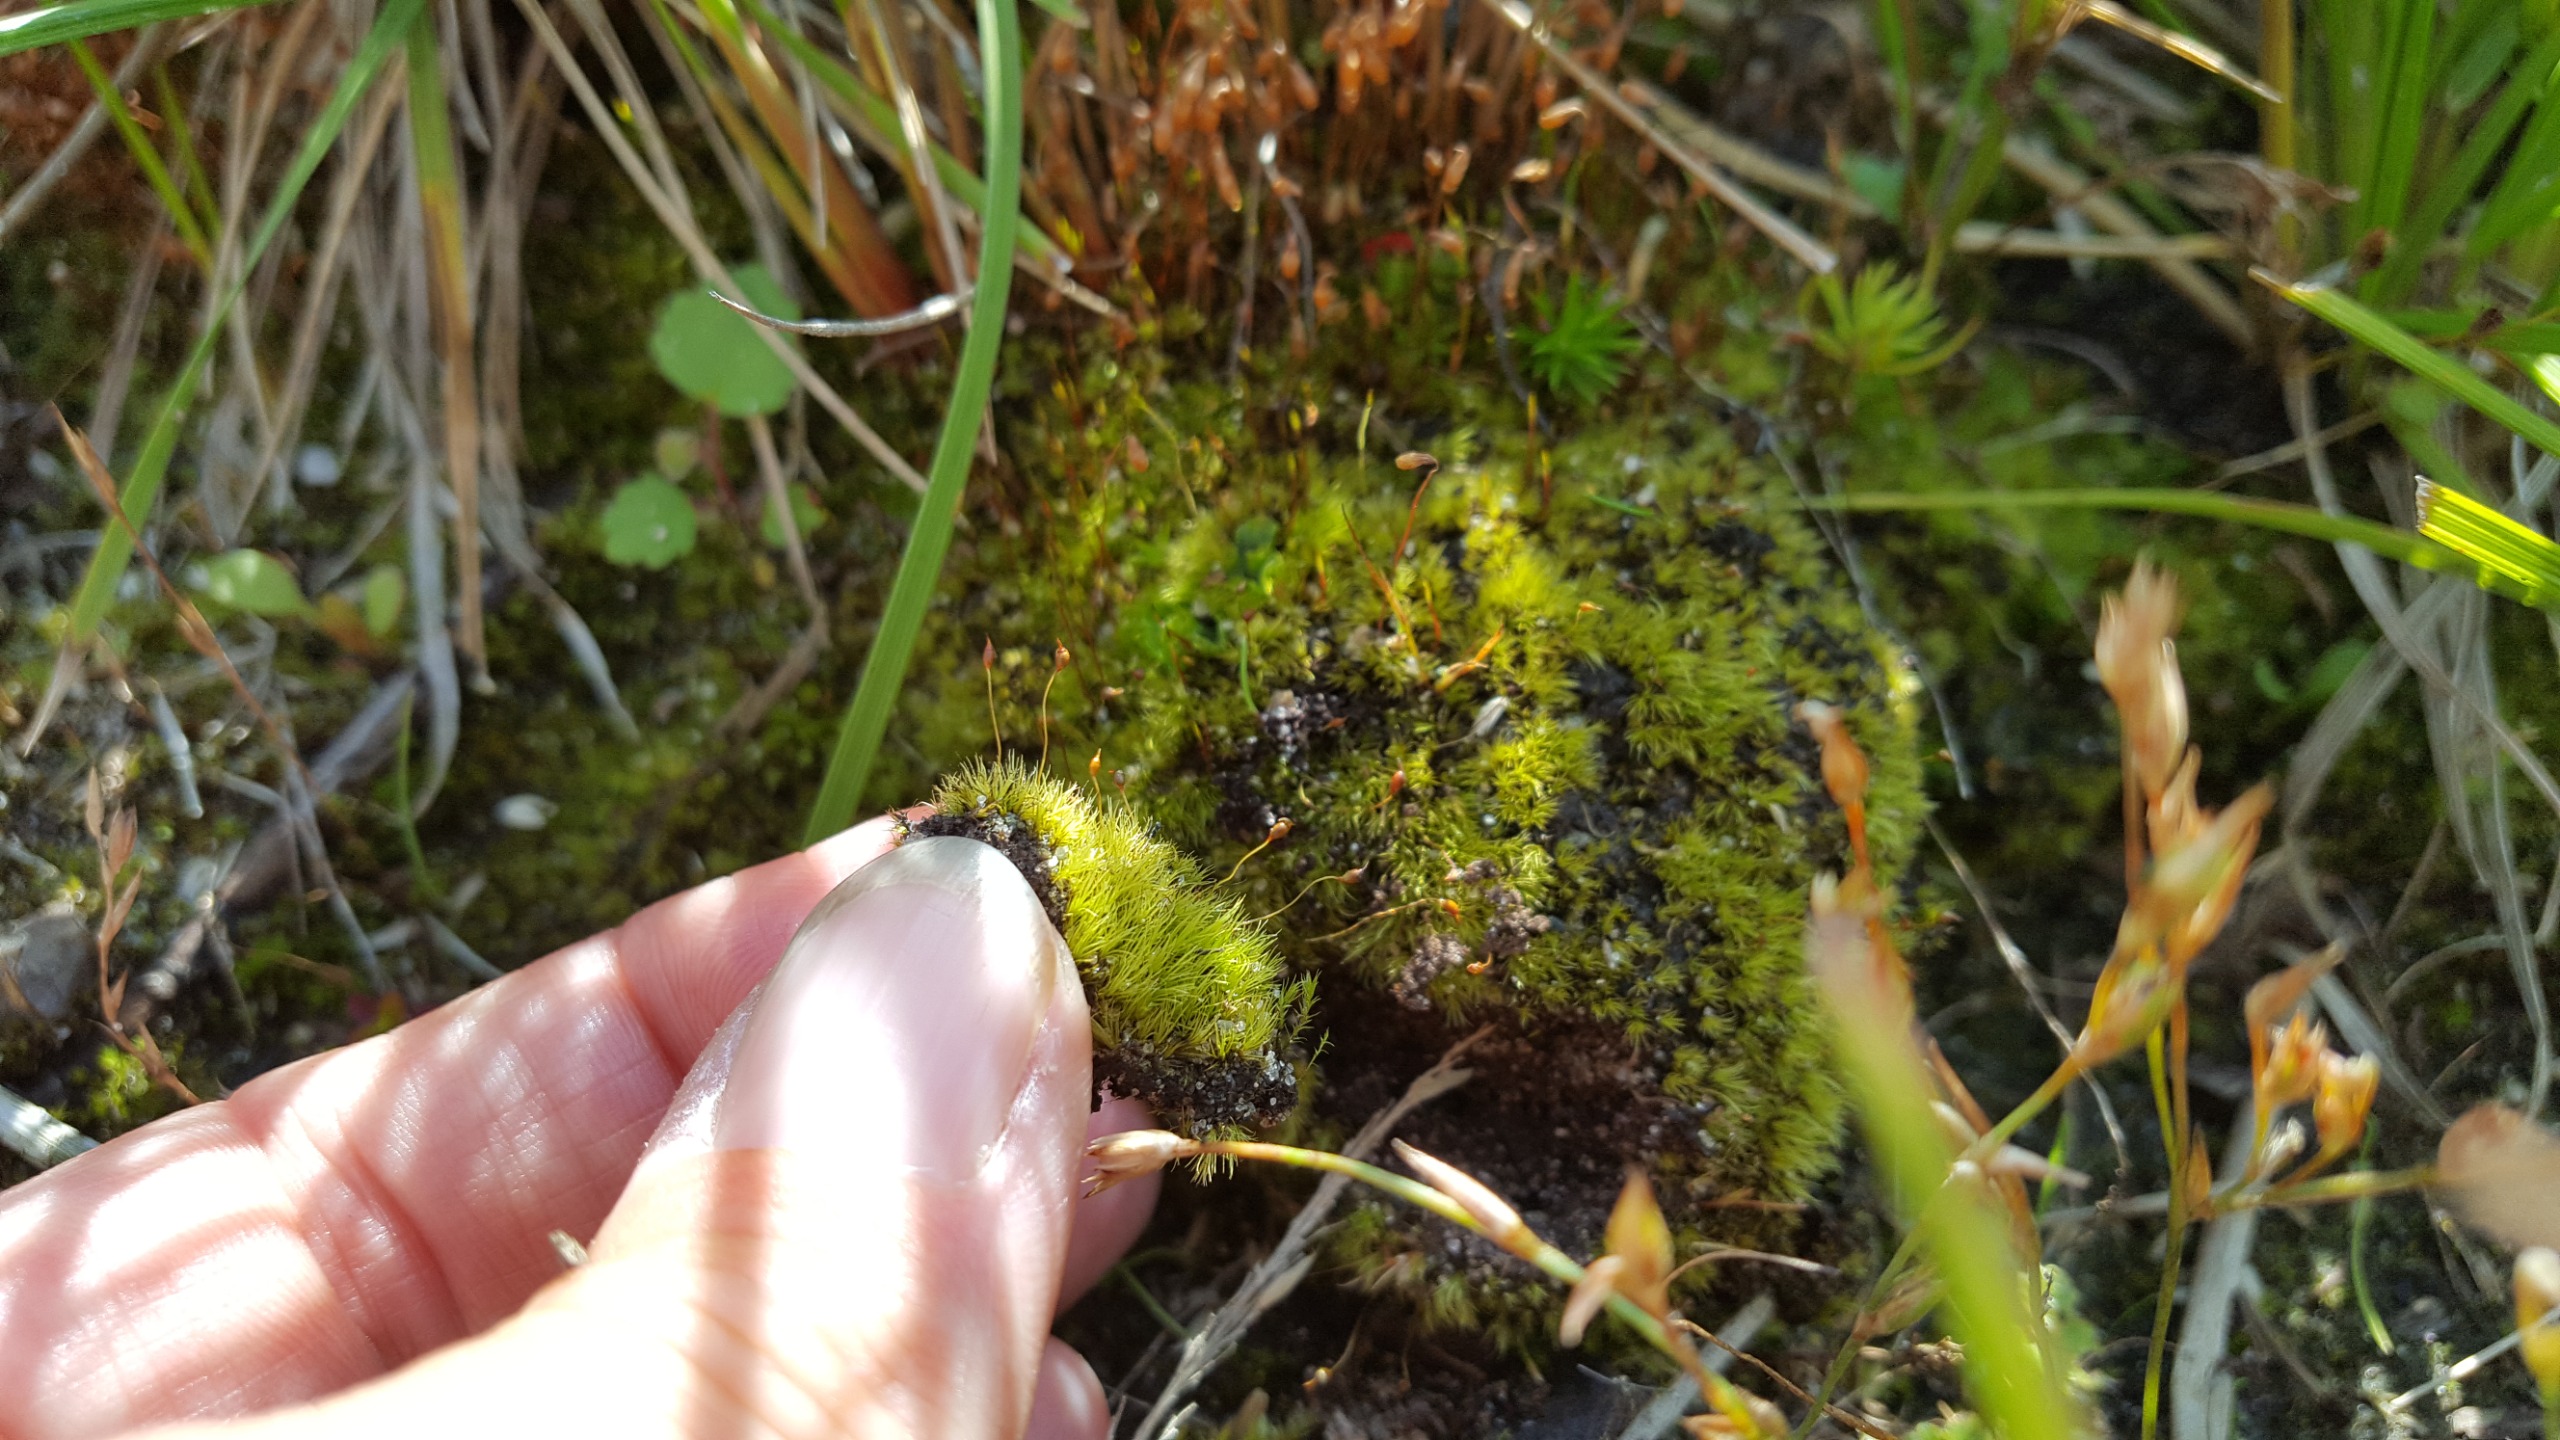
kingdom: Plantae
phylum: Bryophyta
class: Bryopsida
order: Dicranales
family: Dicranellaceae
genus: Dicranella
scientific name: Dicranella cerviculata
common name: Mose-fløjlsmos
